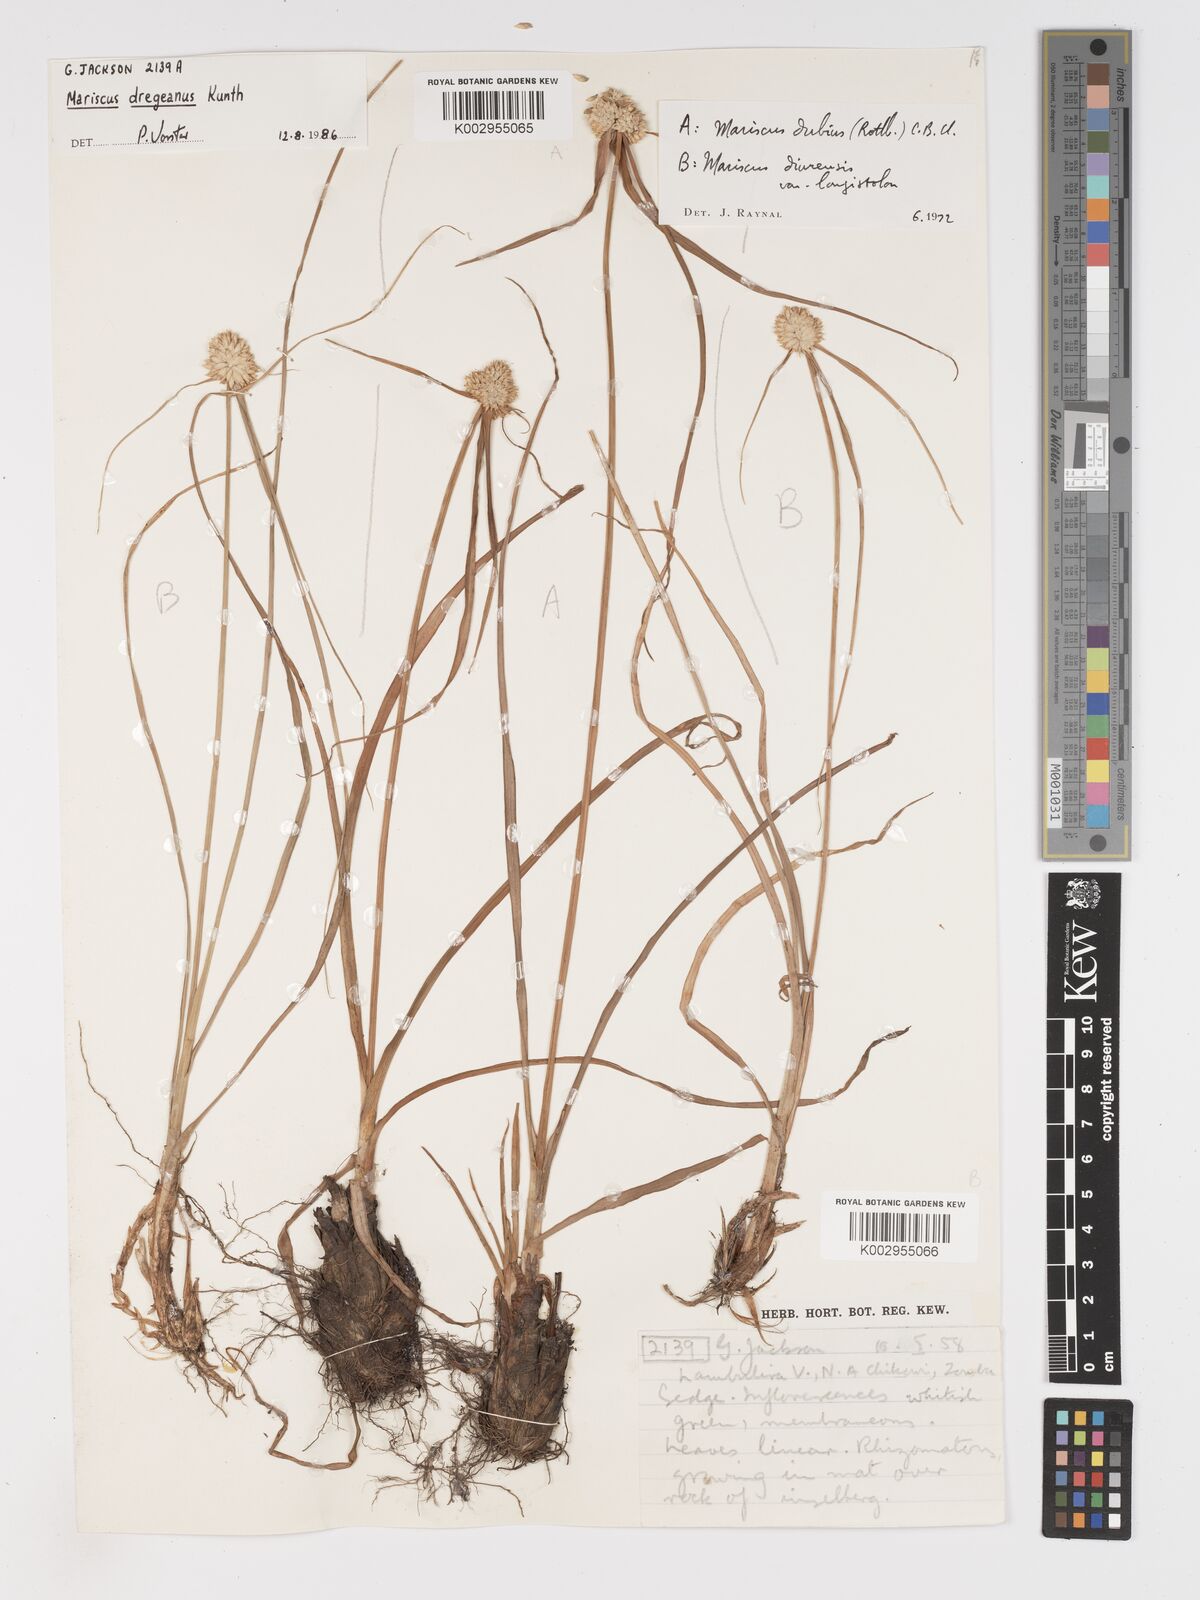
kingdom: Plantae
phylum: Tracheophyta
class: Liliopsida
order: Poales
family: Cyperaceae
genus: Cyperus
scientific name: Cyperus diurensis
